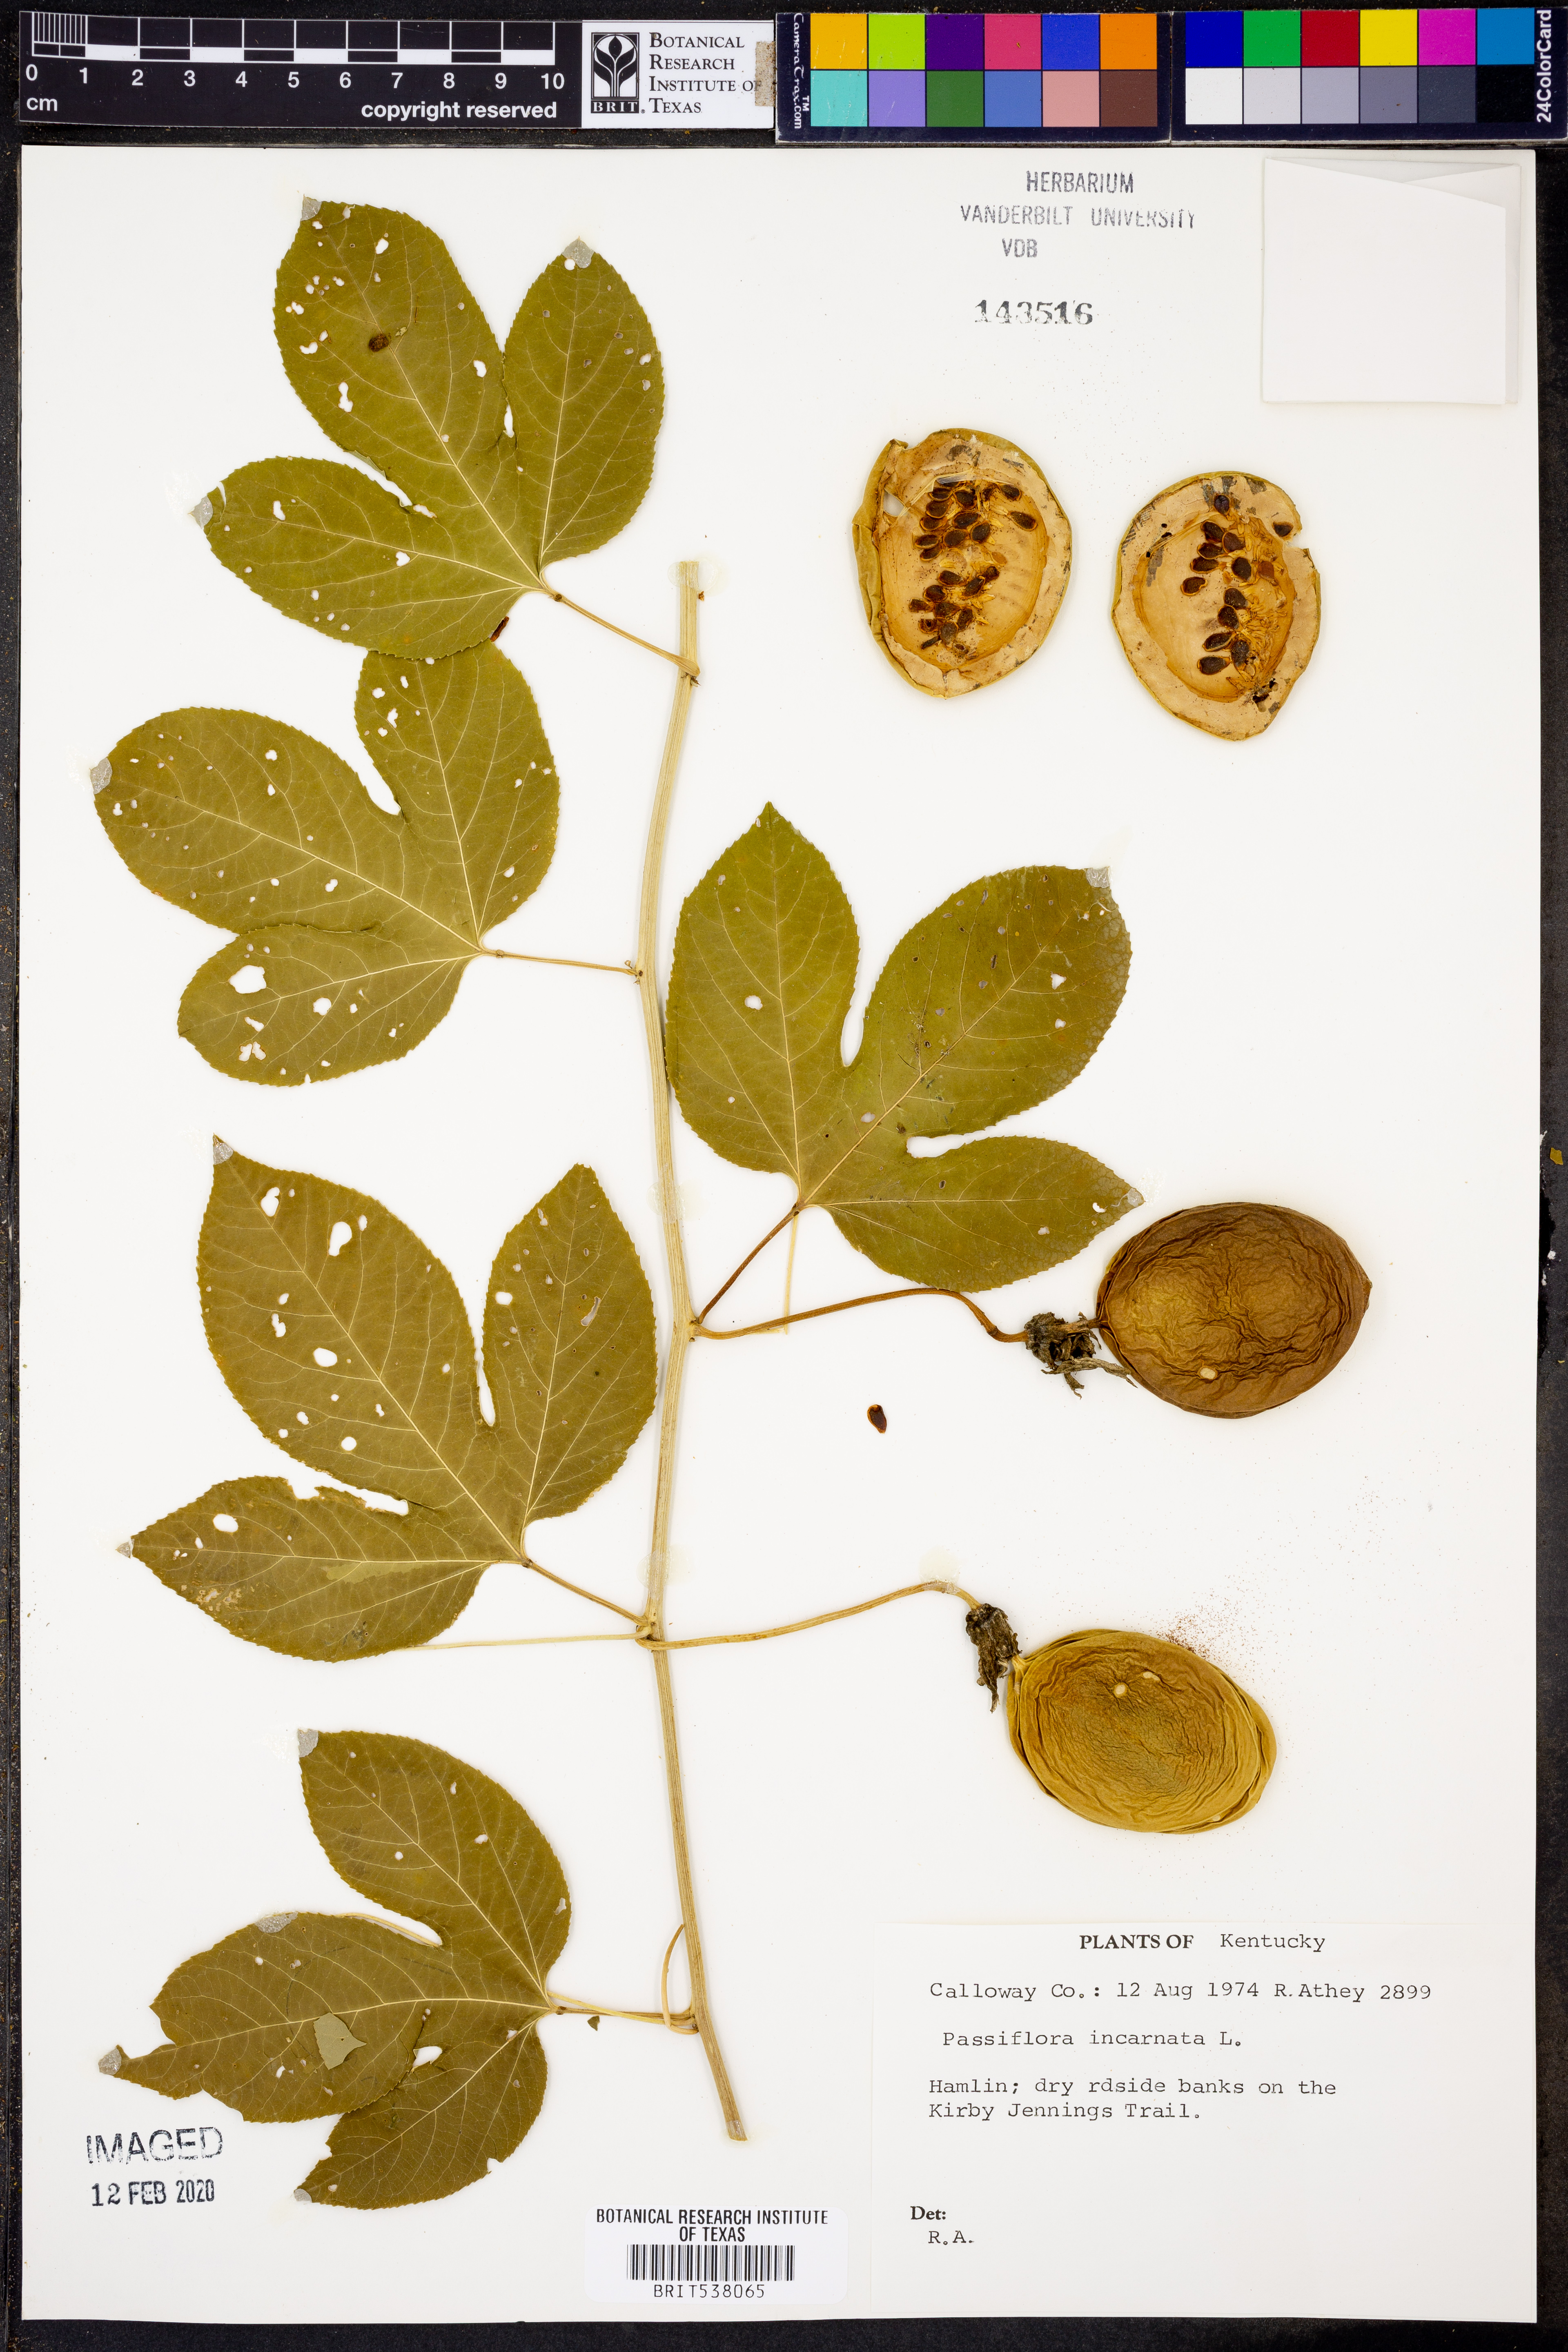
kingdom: Plantae
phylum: Tracheophyta
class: Magnoliopsida
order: Malpighiales
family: Passifloraceae
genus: Passiflora
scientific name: Passiflora incarnata
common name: Apricot-vine
